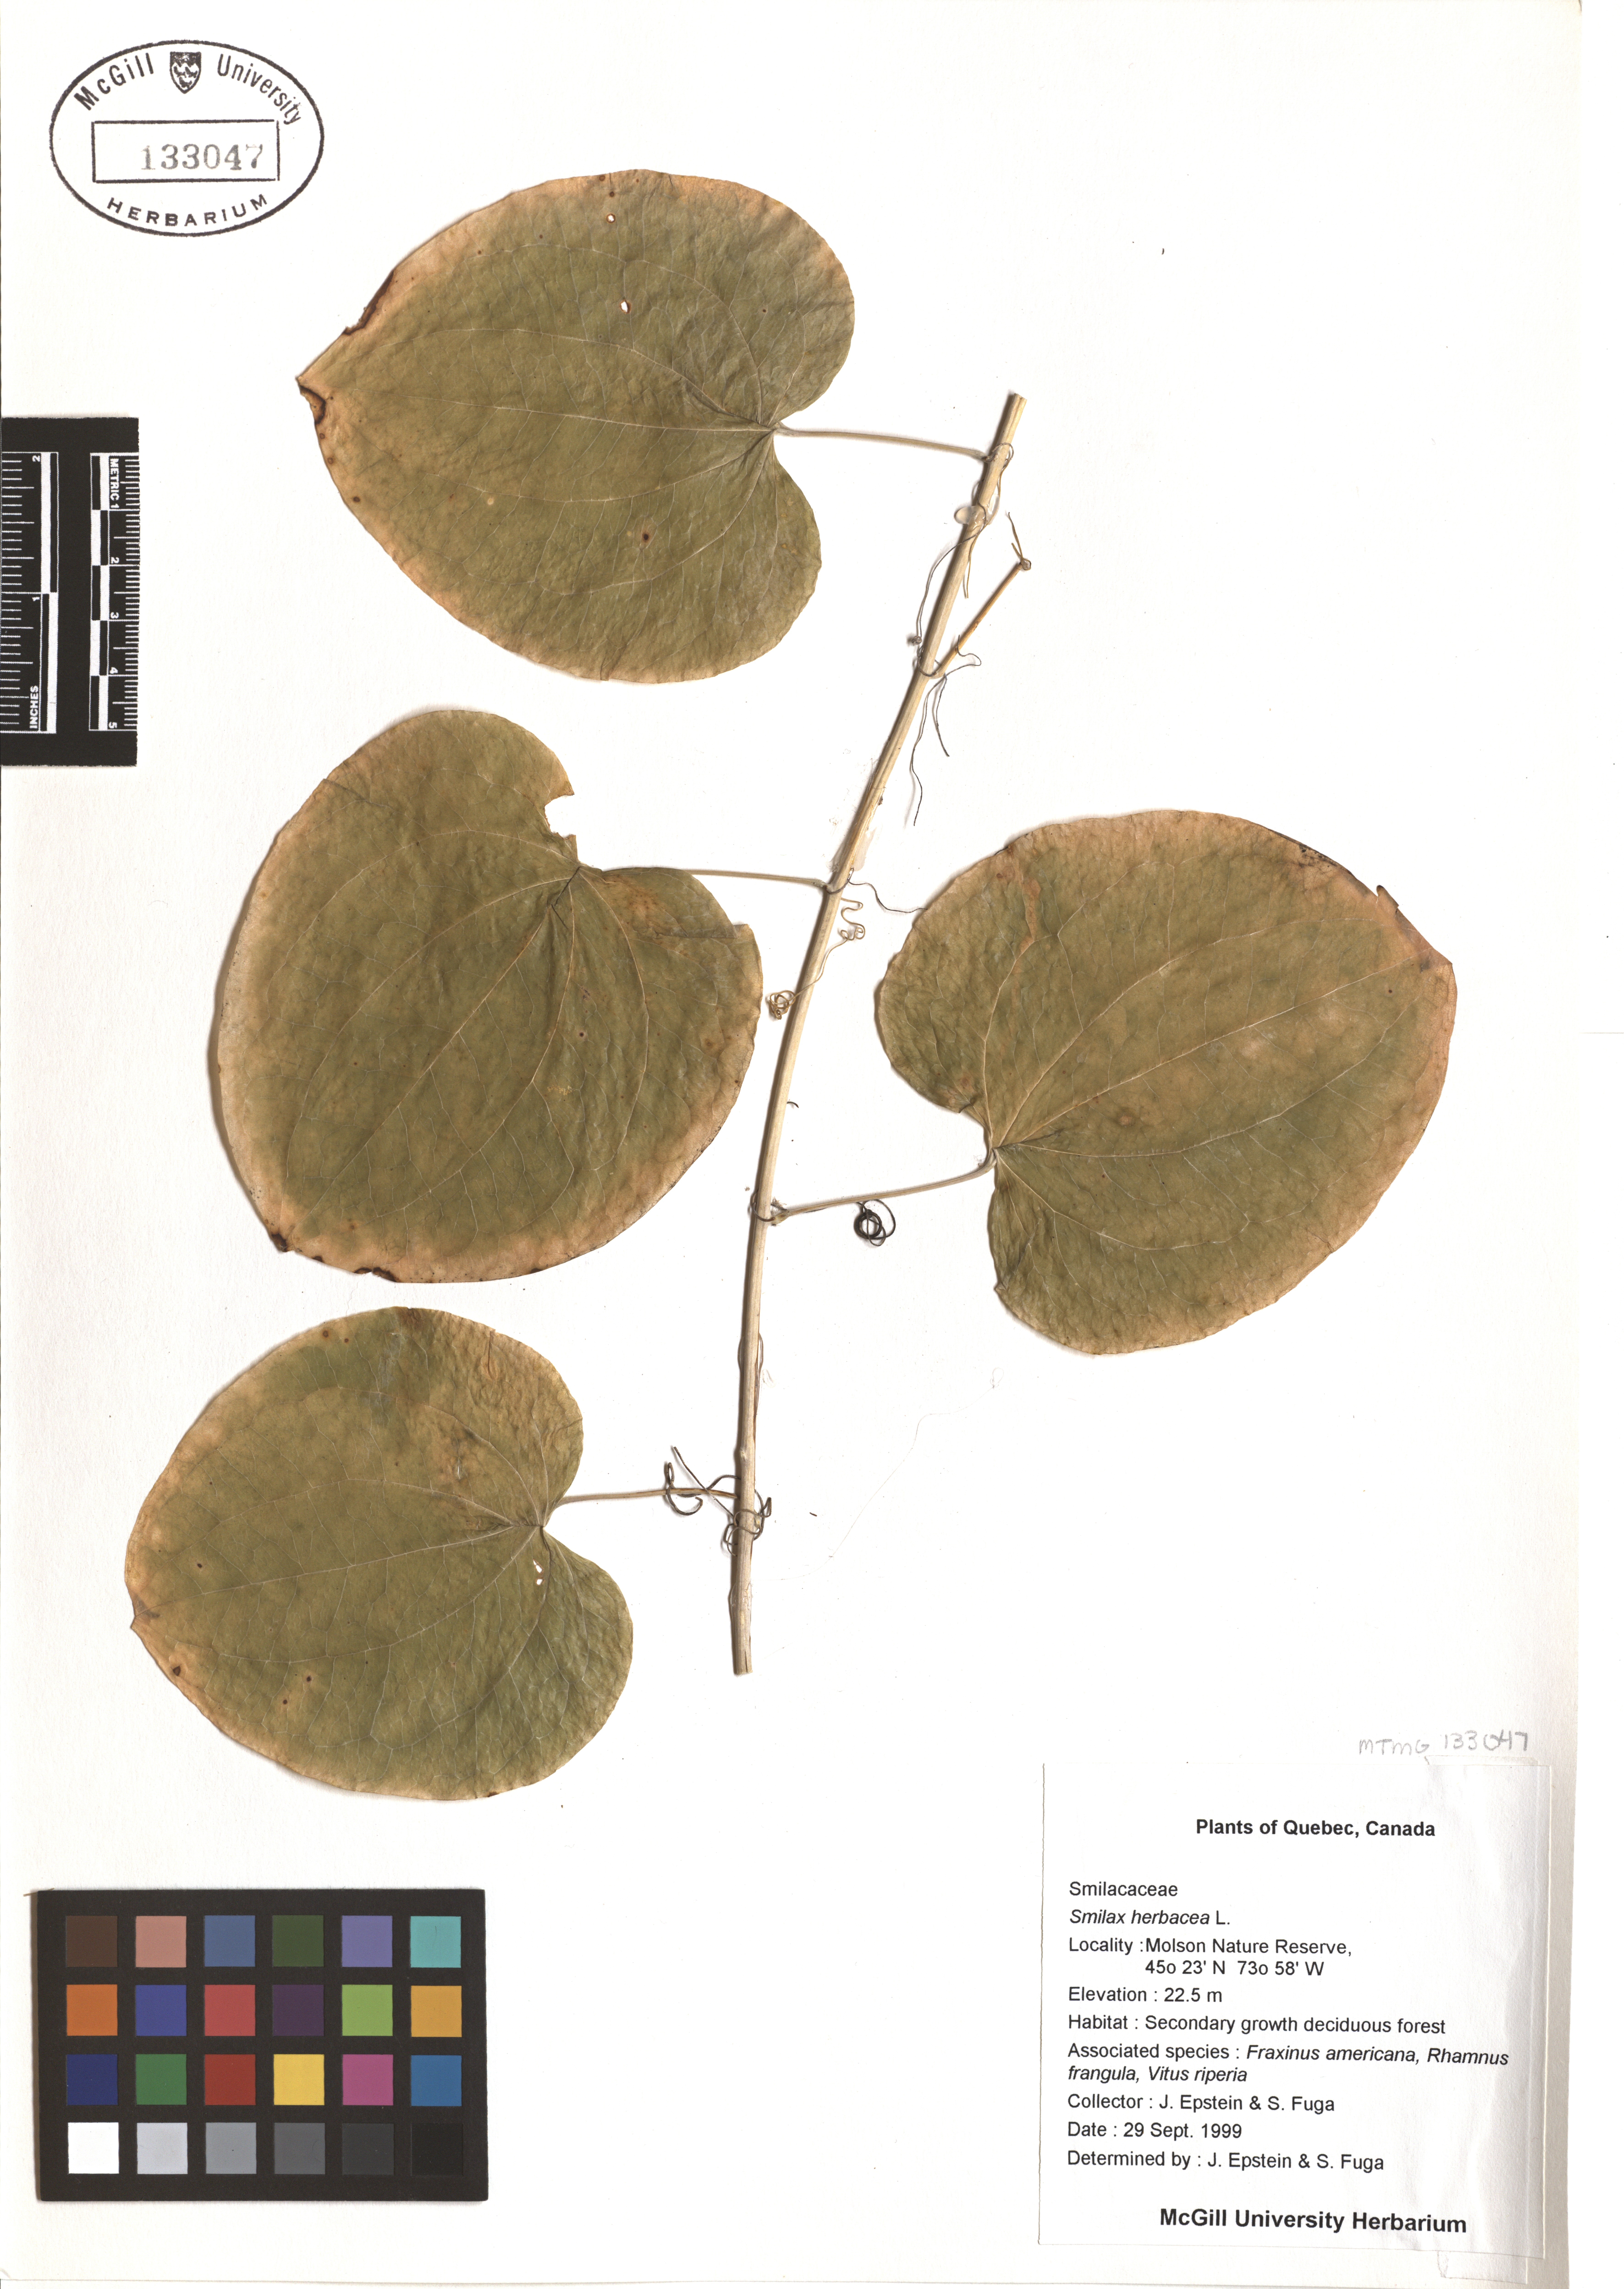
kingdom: Plantae
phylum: Tracheophyta
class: Liliopsida
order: Liliales
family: Smilacaceae
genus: Smilax
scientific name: Smilax herbacea
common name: Jacob's-ladder
